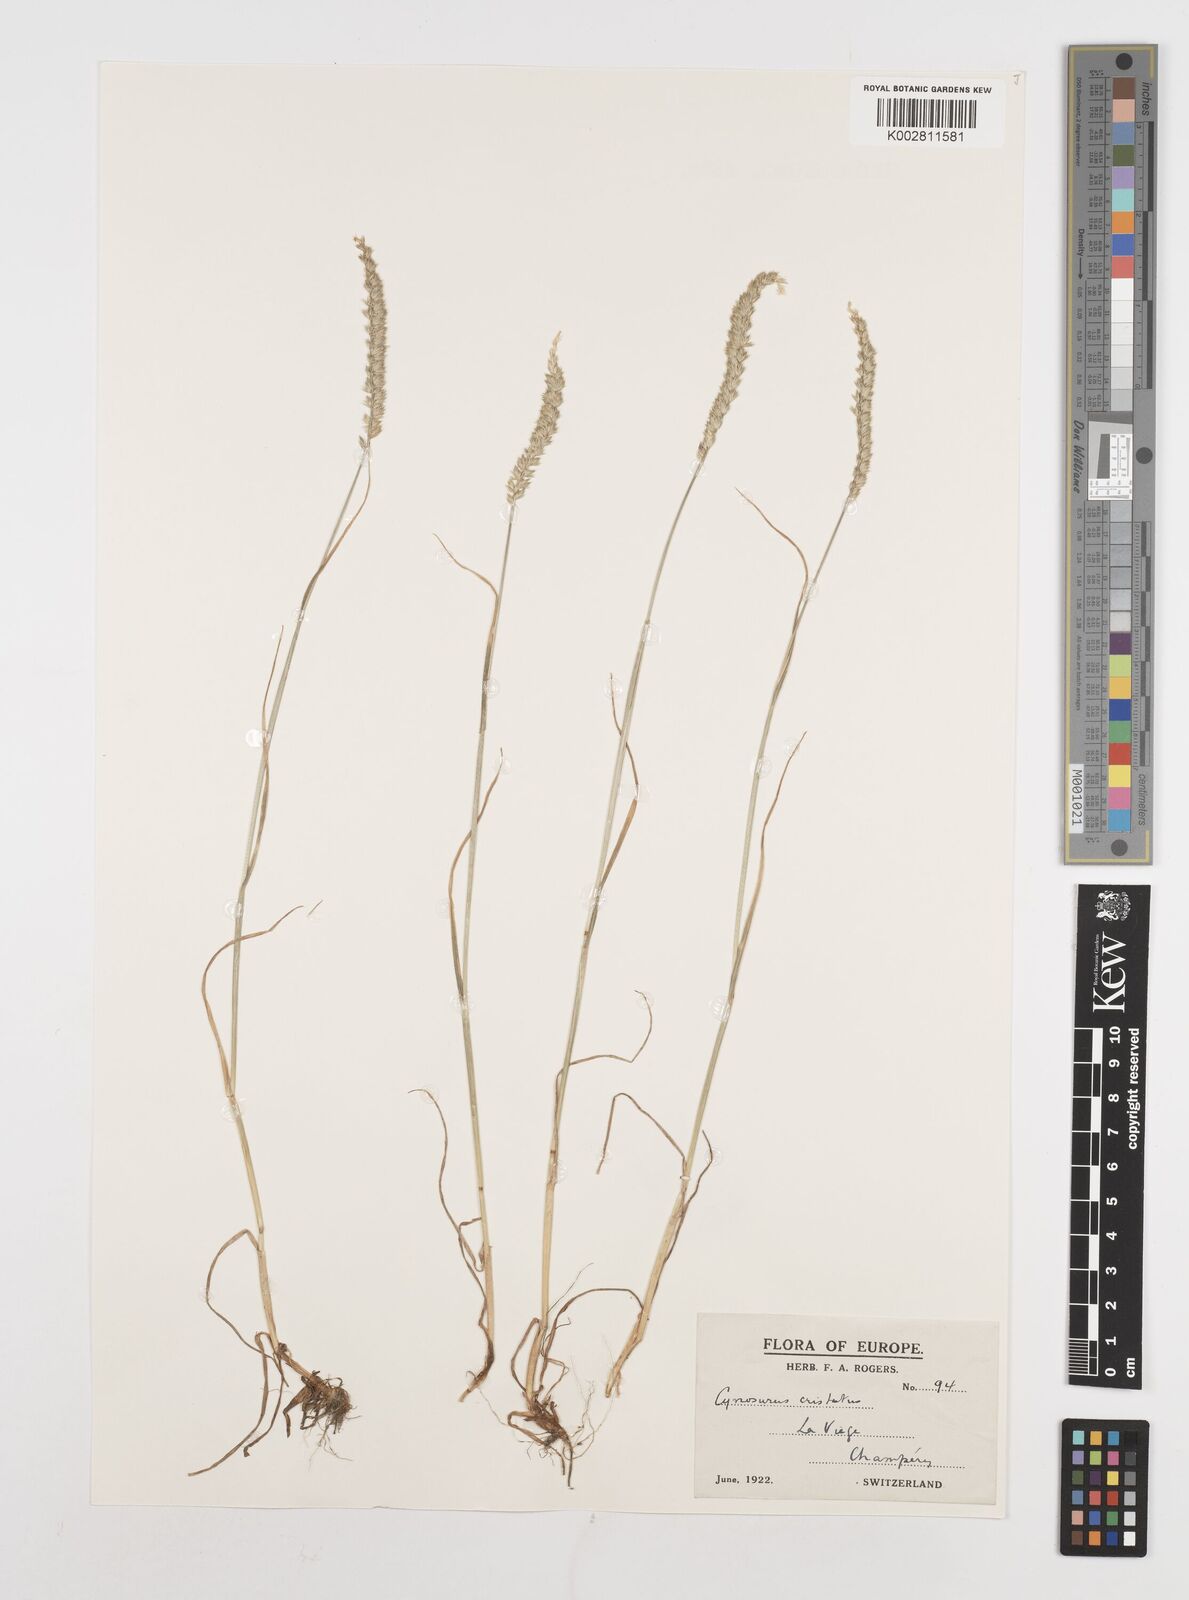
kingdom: Plantae
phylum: Tracheophyta
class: Liliopsida
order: Poales
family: Poaceae
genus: Cynosurus
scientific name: Cynosurus cristatus
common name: Crested dog's-tail
